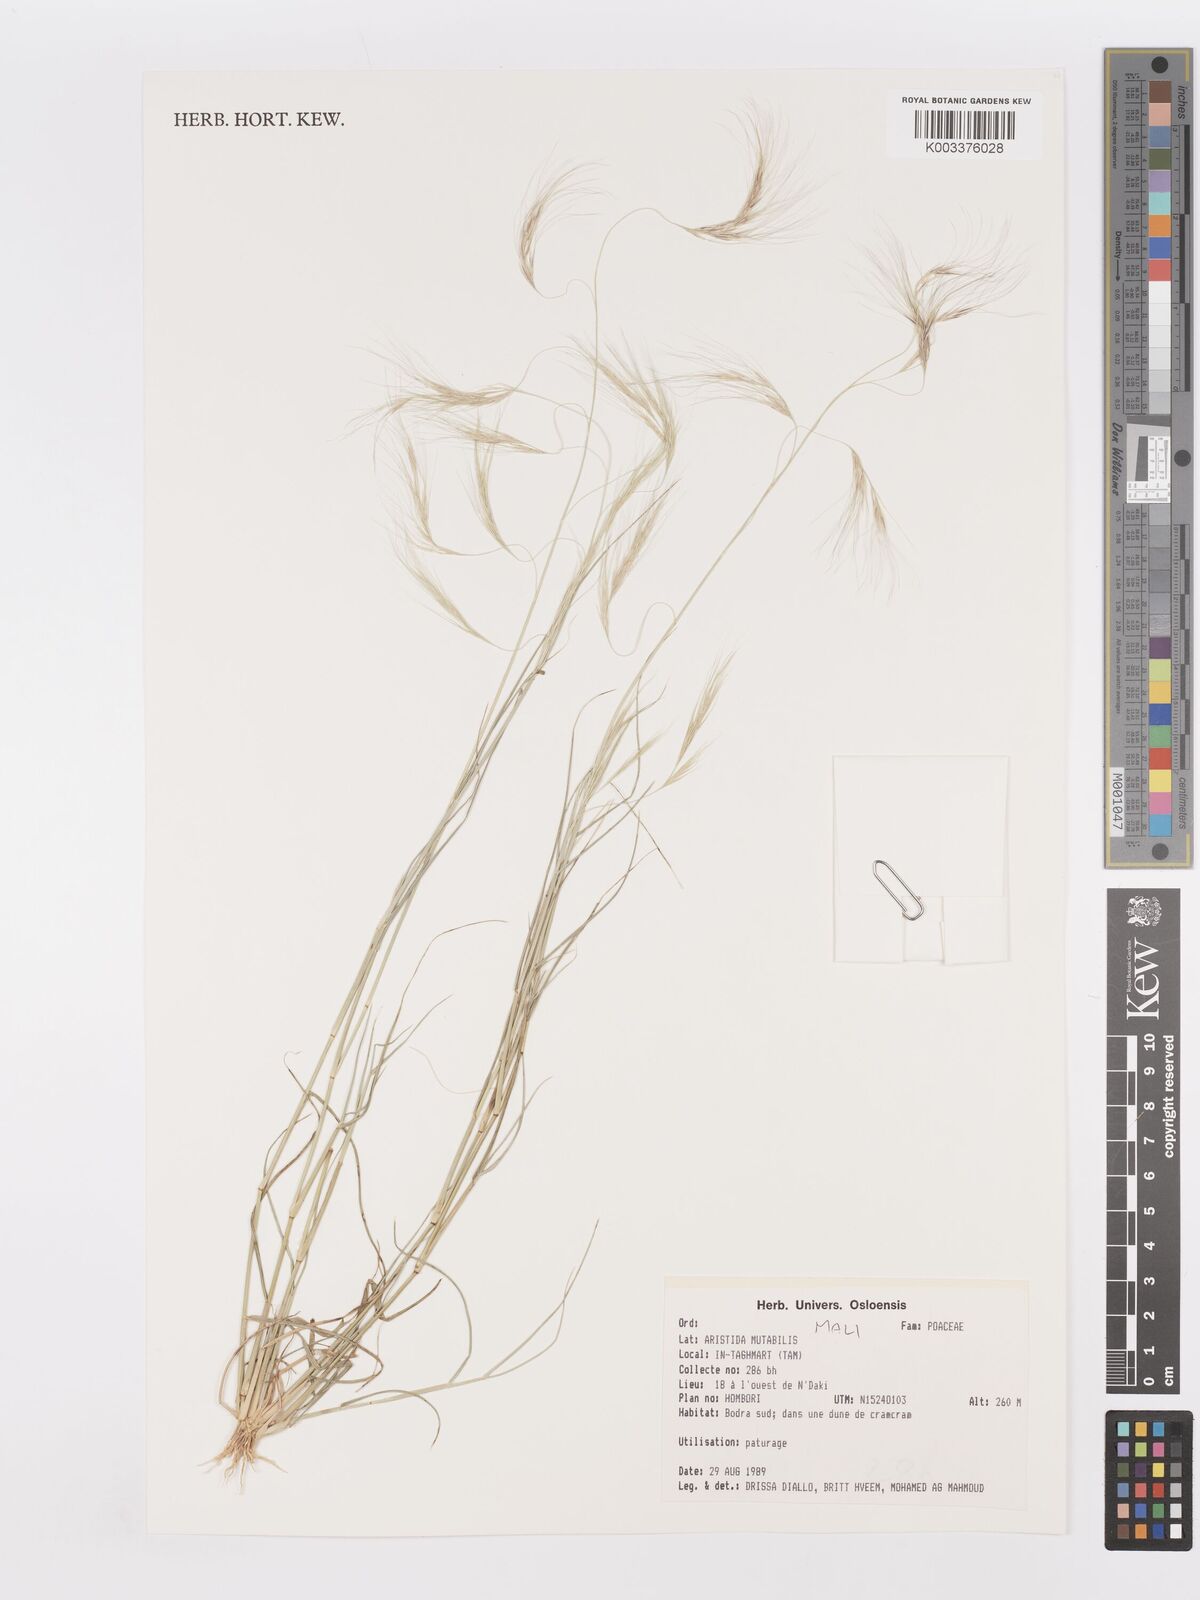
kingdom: Plantae
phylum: Tracheophyta
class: Liliopsida
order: Poales
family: Poaceae
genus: Aristida
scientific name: Aristida mutabilis
